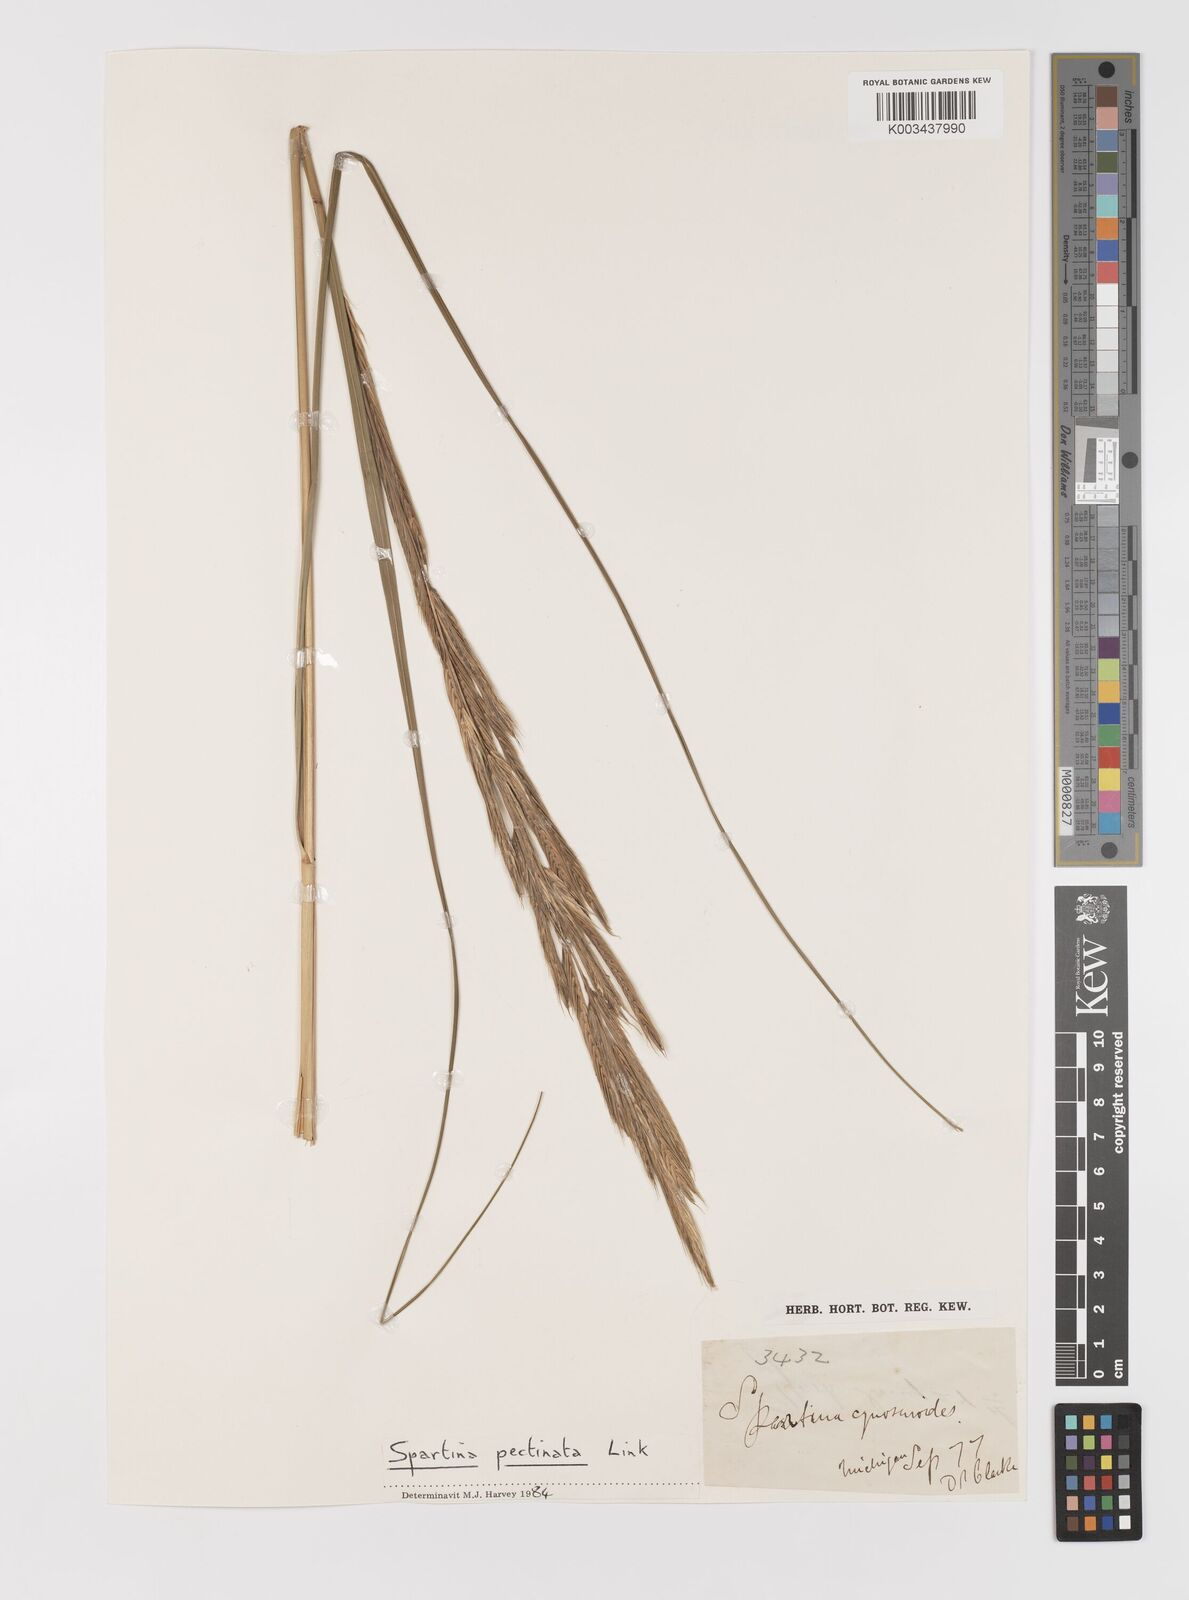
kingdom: Plantae
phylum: Tracheophyta
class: Liliopsida
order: Poales
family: Poaceae
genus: Sporobolus
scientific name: Sporobolus cynosuroides
